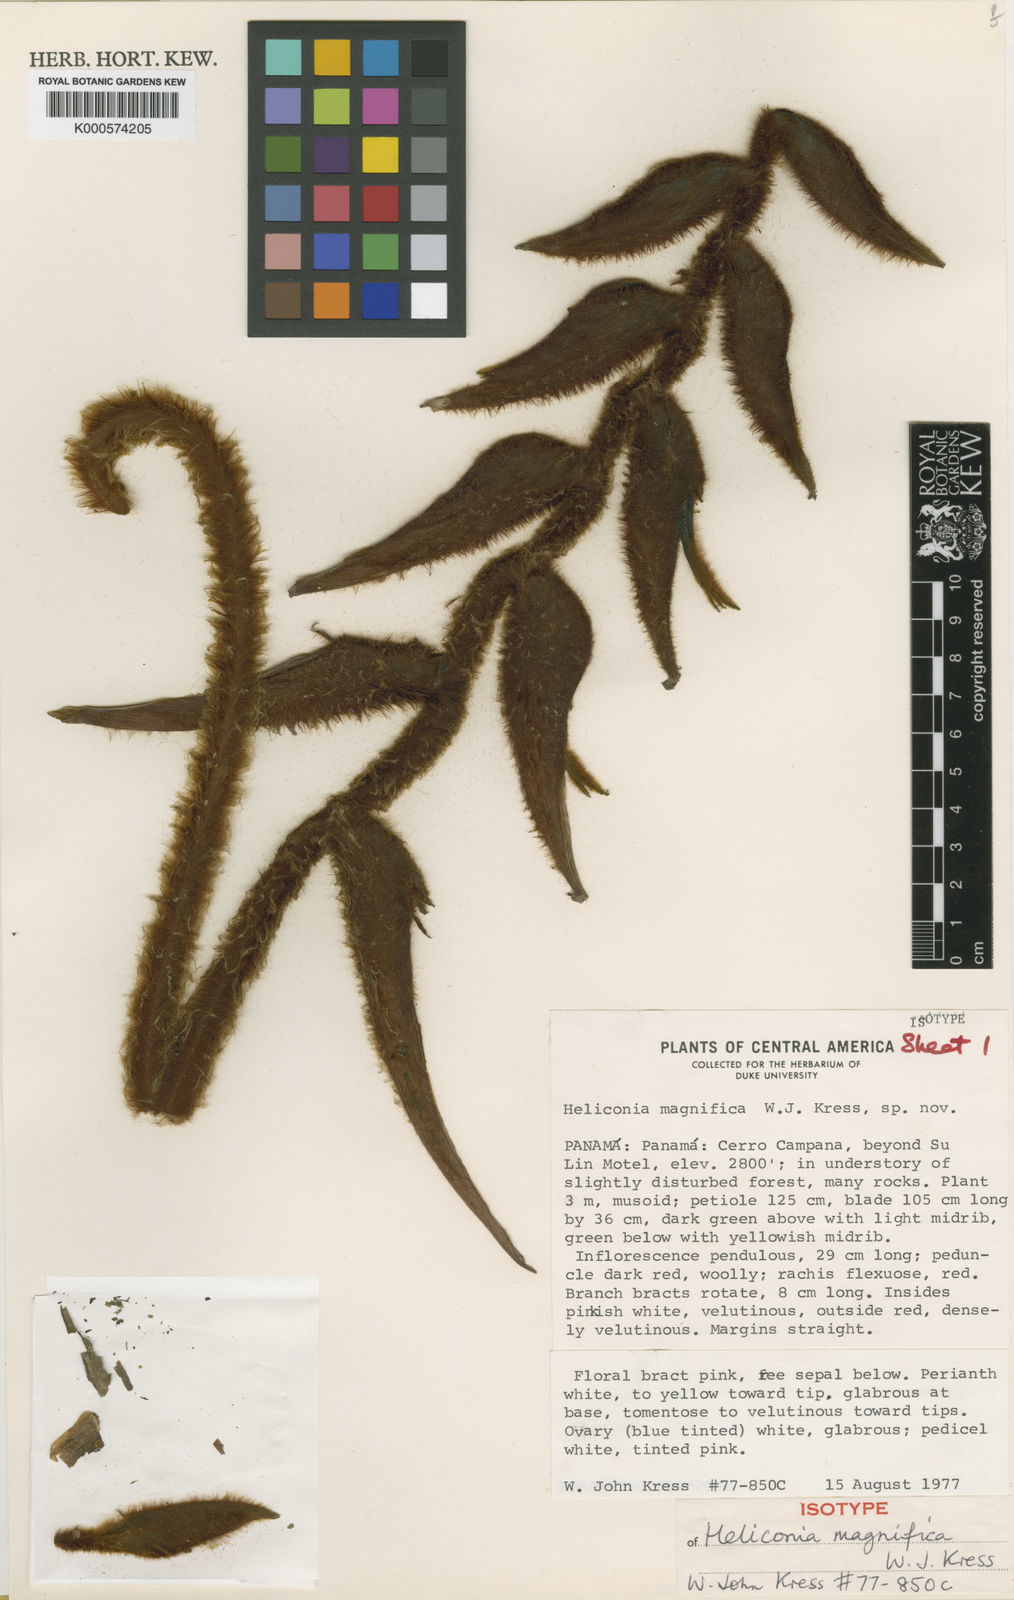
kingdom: Plantae
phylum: Tracheophyta
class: Liliopsida
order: Zingiberales
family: Heliconiaceae
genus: Heliconia
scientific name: Heliconia magnifica
